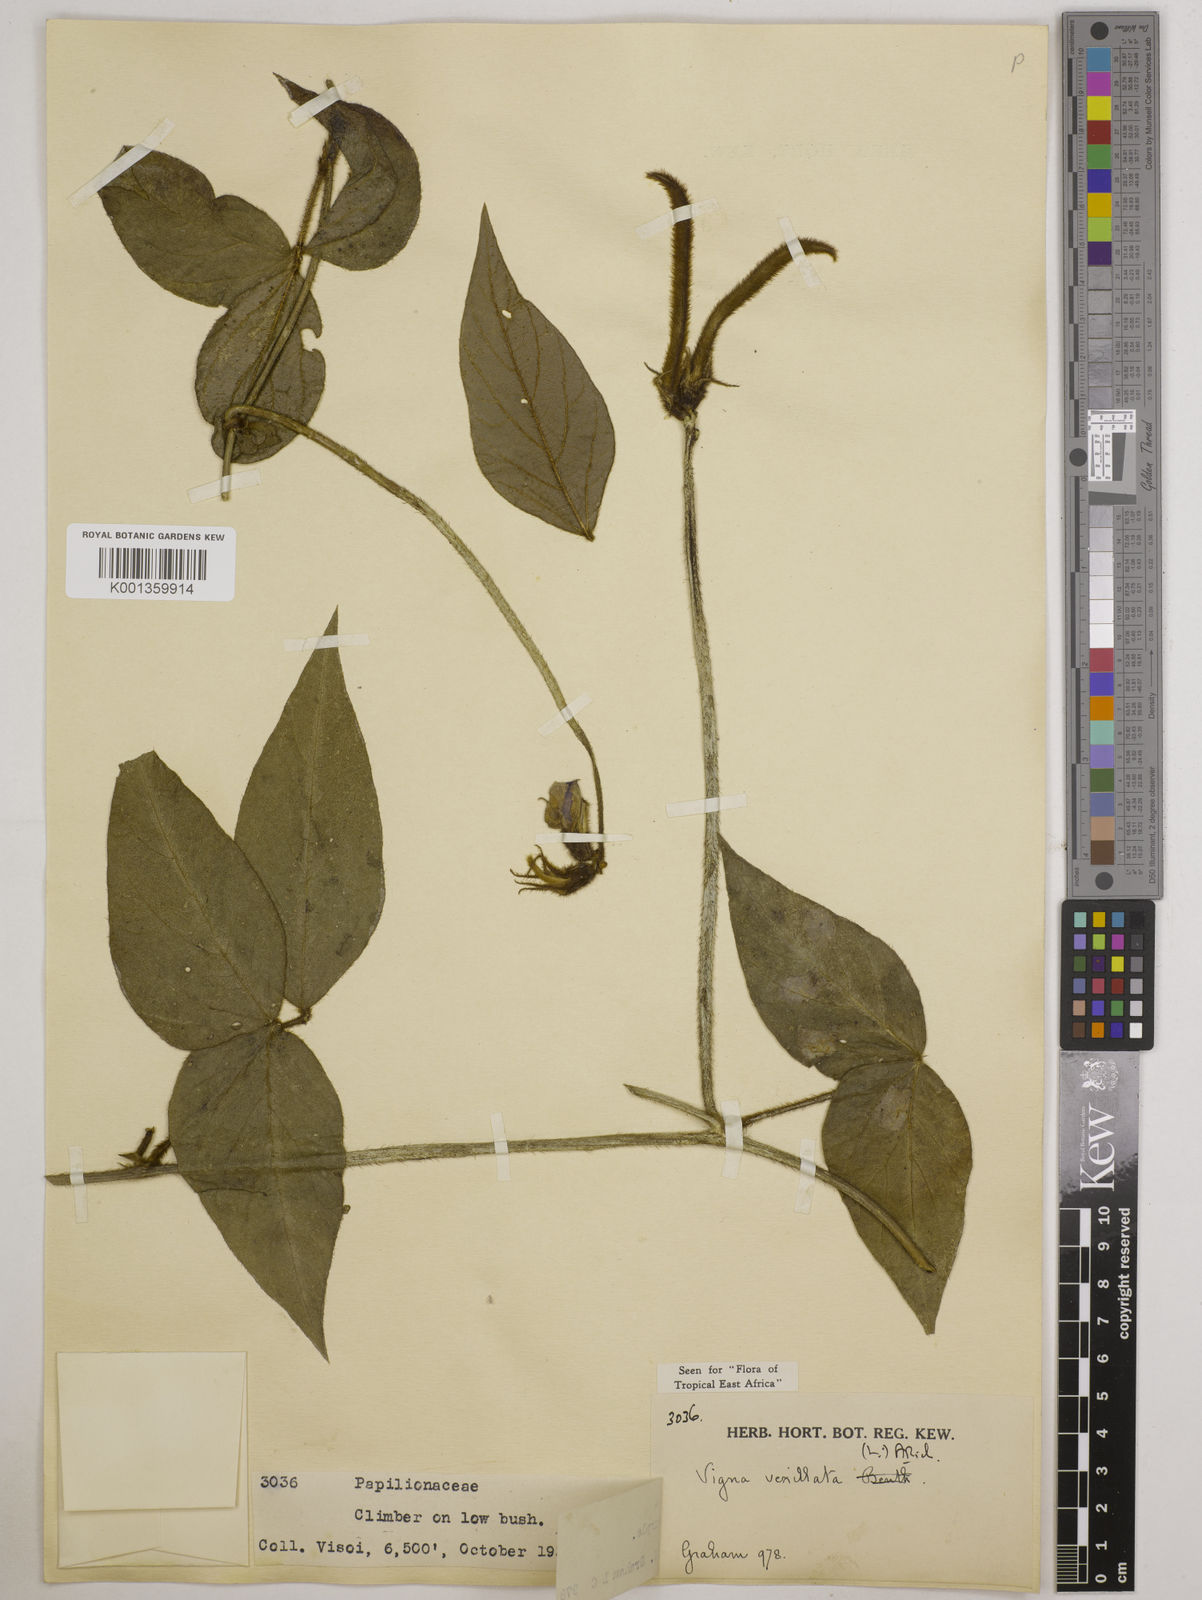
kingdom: Plantae
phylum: Tracheophyta
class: Magnoliopsida
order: Fabales
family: Fabaceae
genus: Vigna
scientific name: Vigna vexillata
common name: Zombi pea
